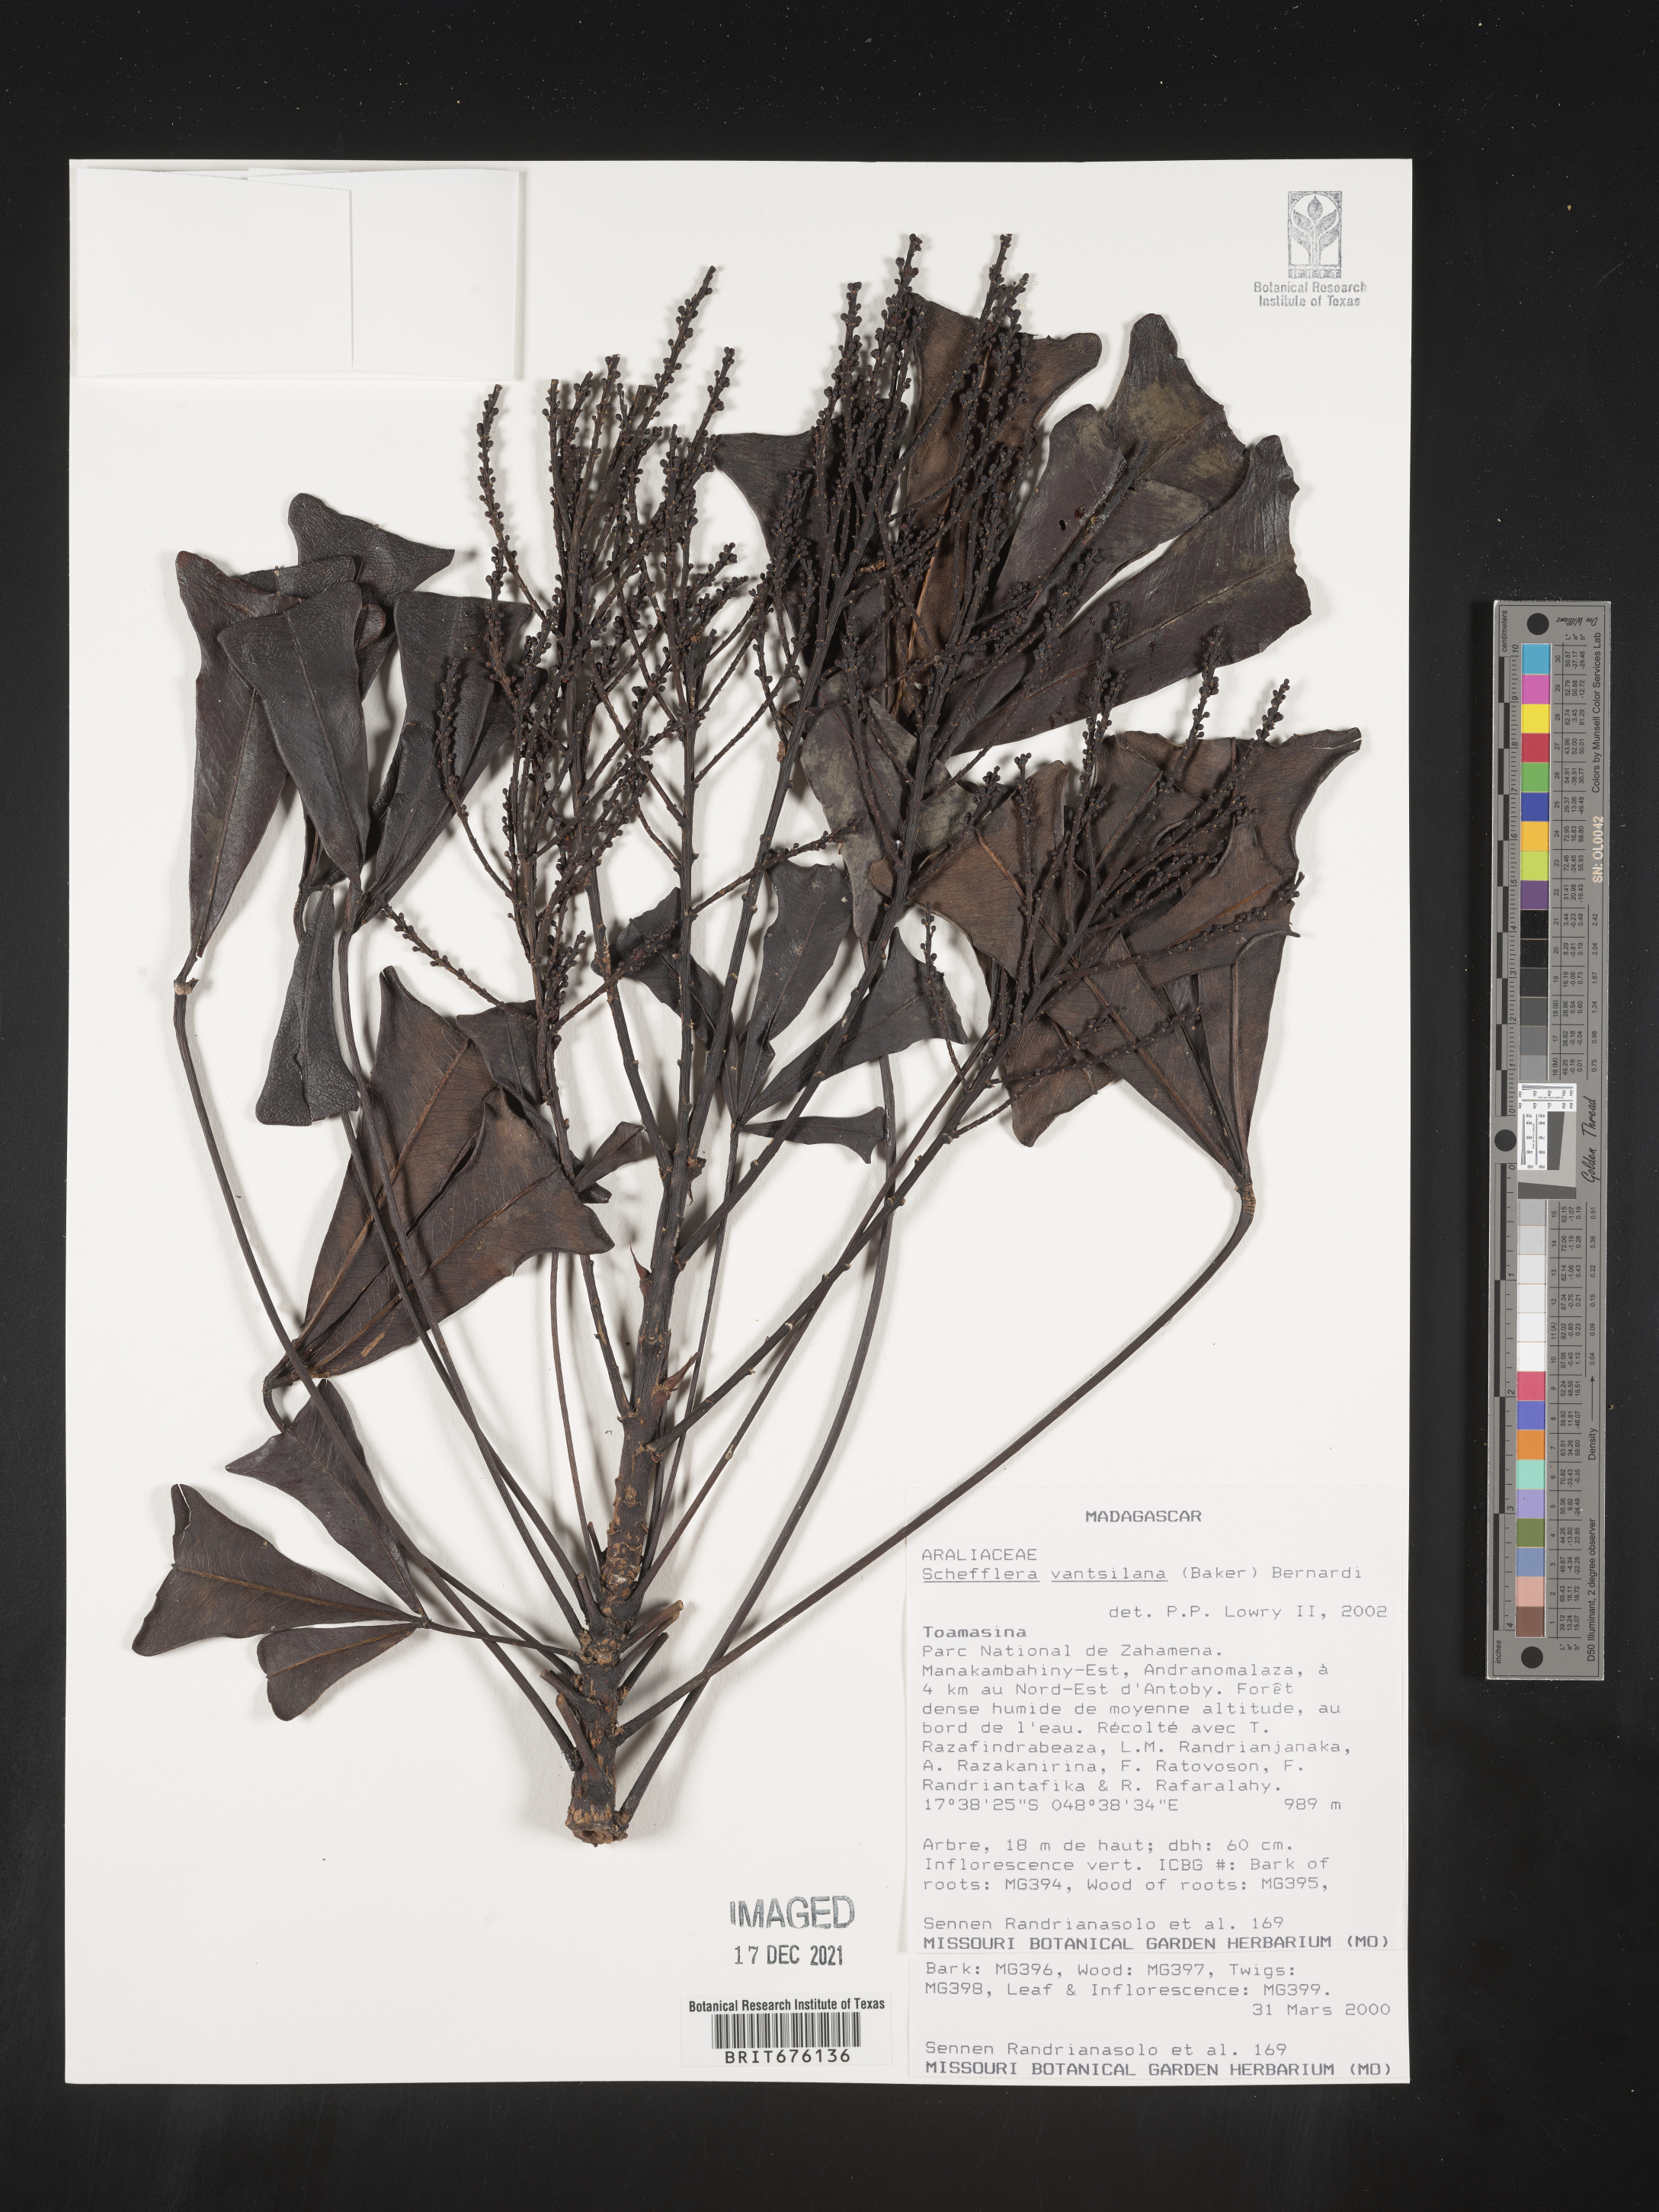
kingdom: Plantae
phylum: Tracheophyta
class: Magnoliopsida
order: Apiales
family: Araliaceae
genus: Schefflera
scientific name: Schefflera
